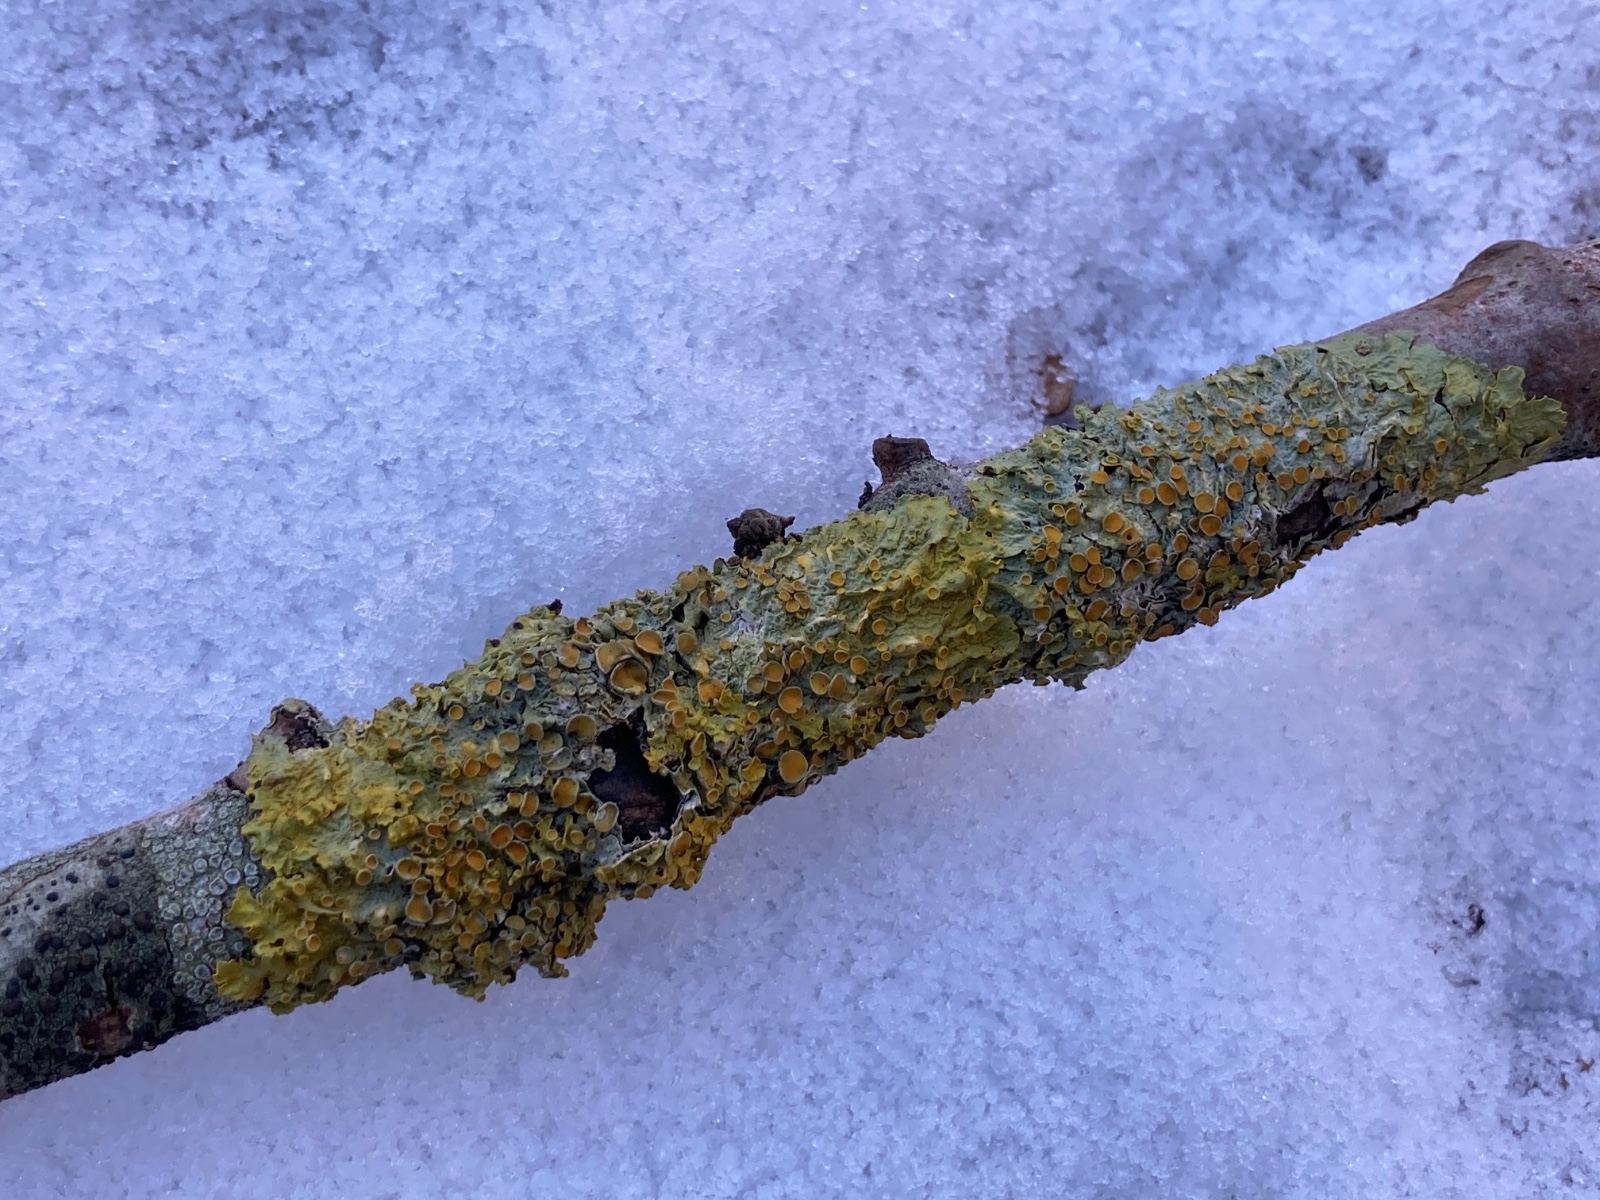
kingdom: Fungi
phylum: Ascomycota
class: Lecanoromycetes
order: Teloschistales
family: Teloschistaceae
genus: Xanthoria
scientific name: Xanthoria parietina
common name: almindelig væggelav
